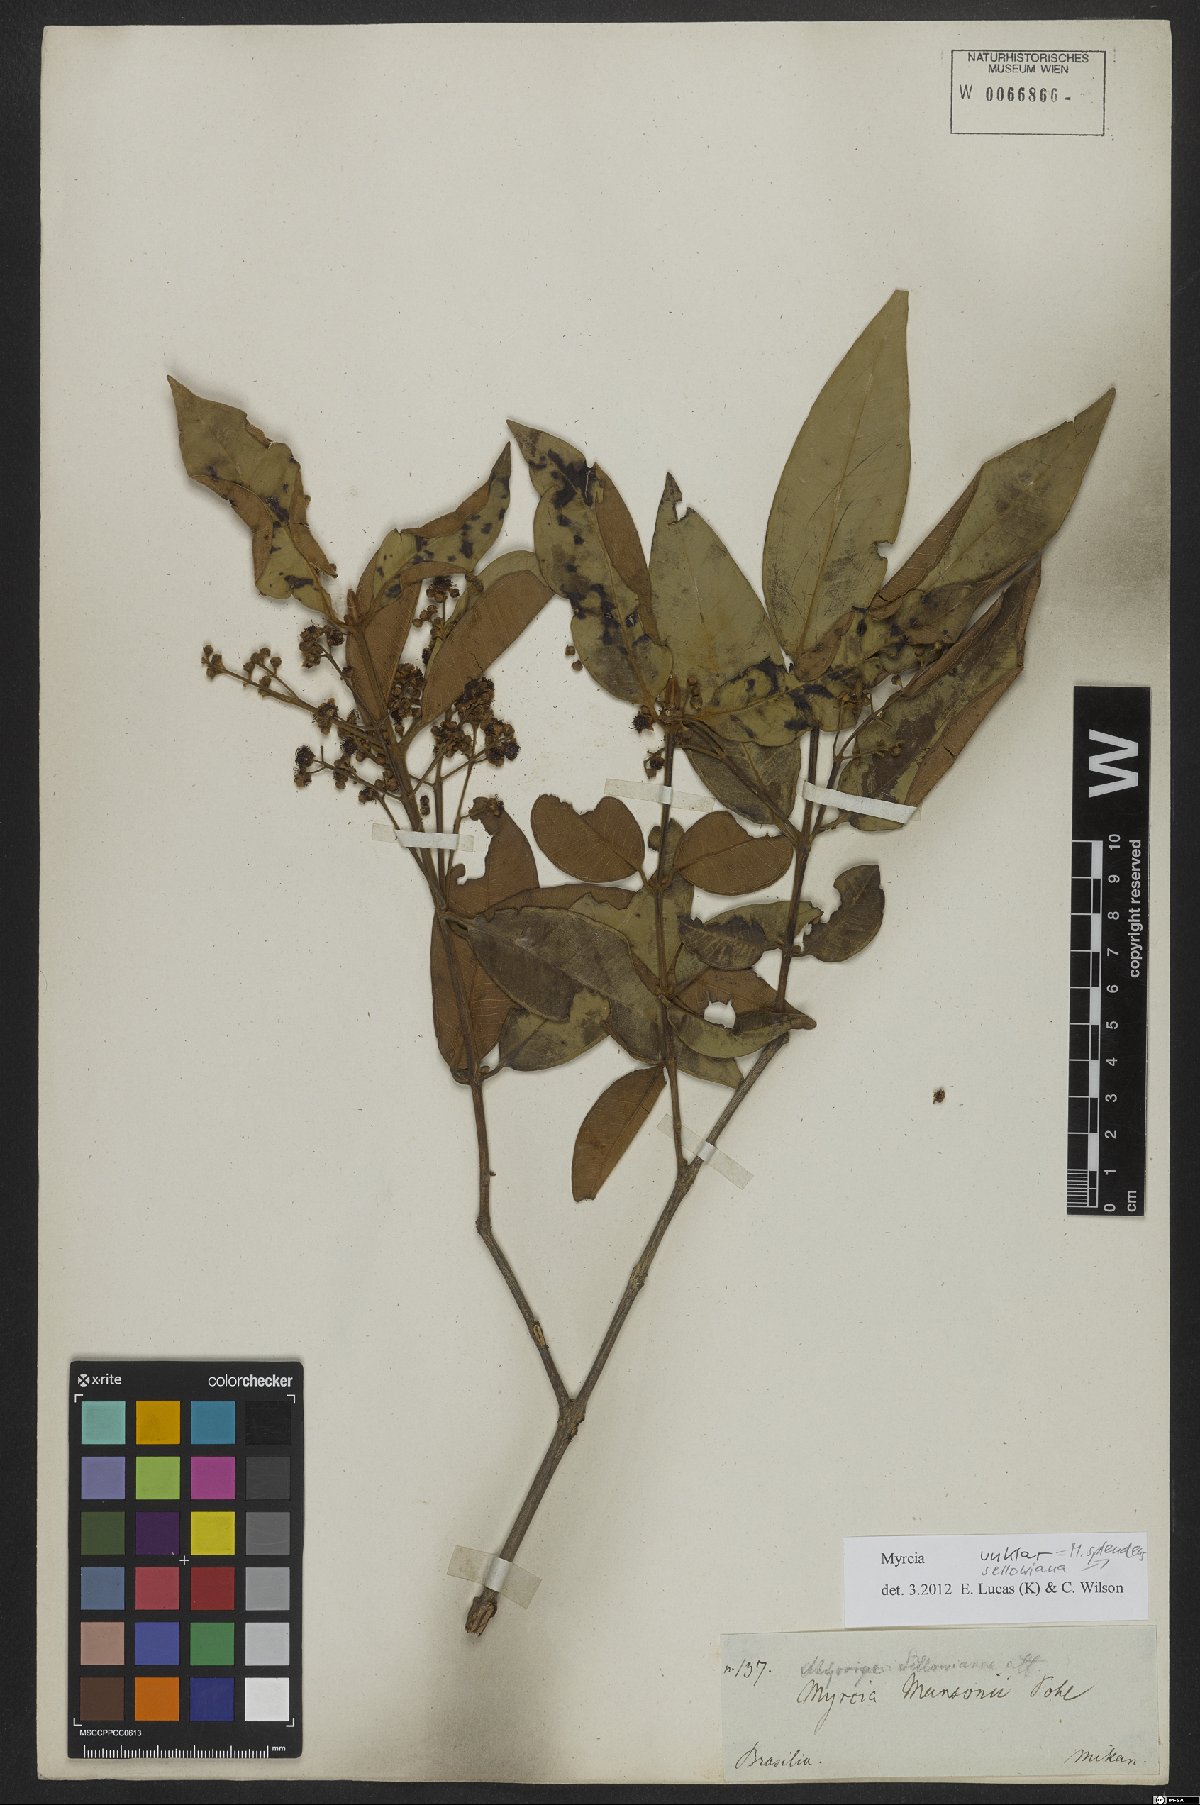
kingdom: Plantae
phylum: Tracheophyta
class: Magnoliopsida
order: Myrtales
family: Myrtaceae
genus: Myrcia
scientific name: Myrcia splendens
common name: Surinam cherry
